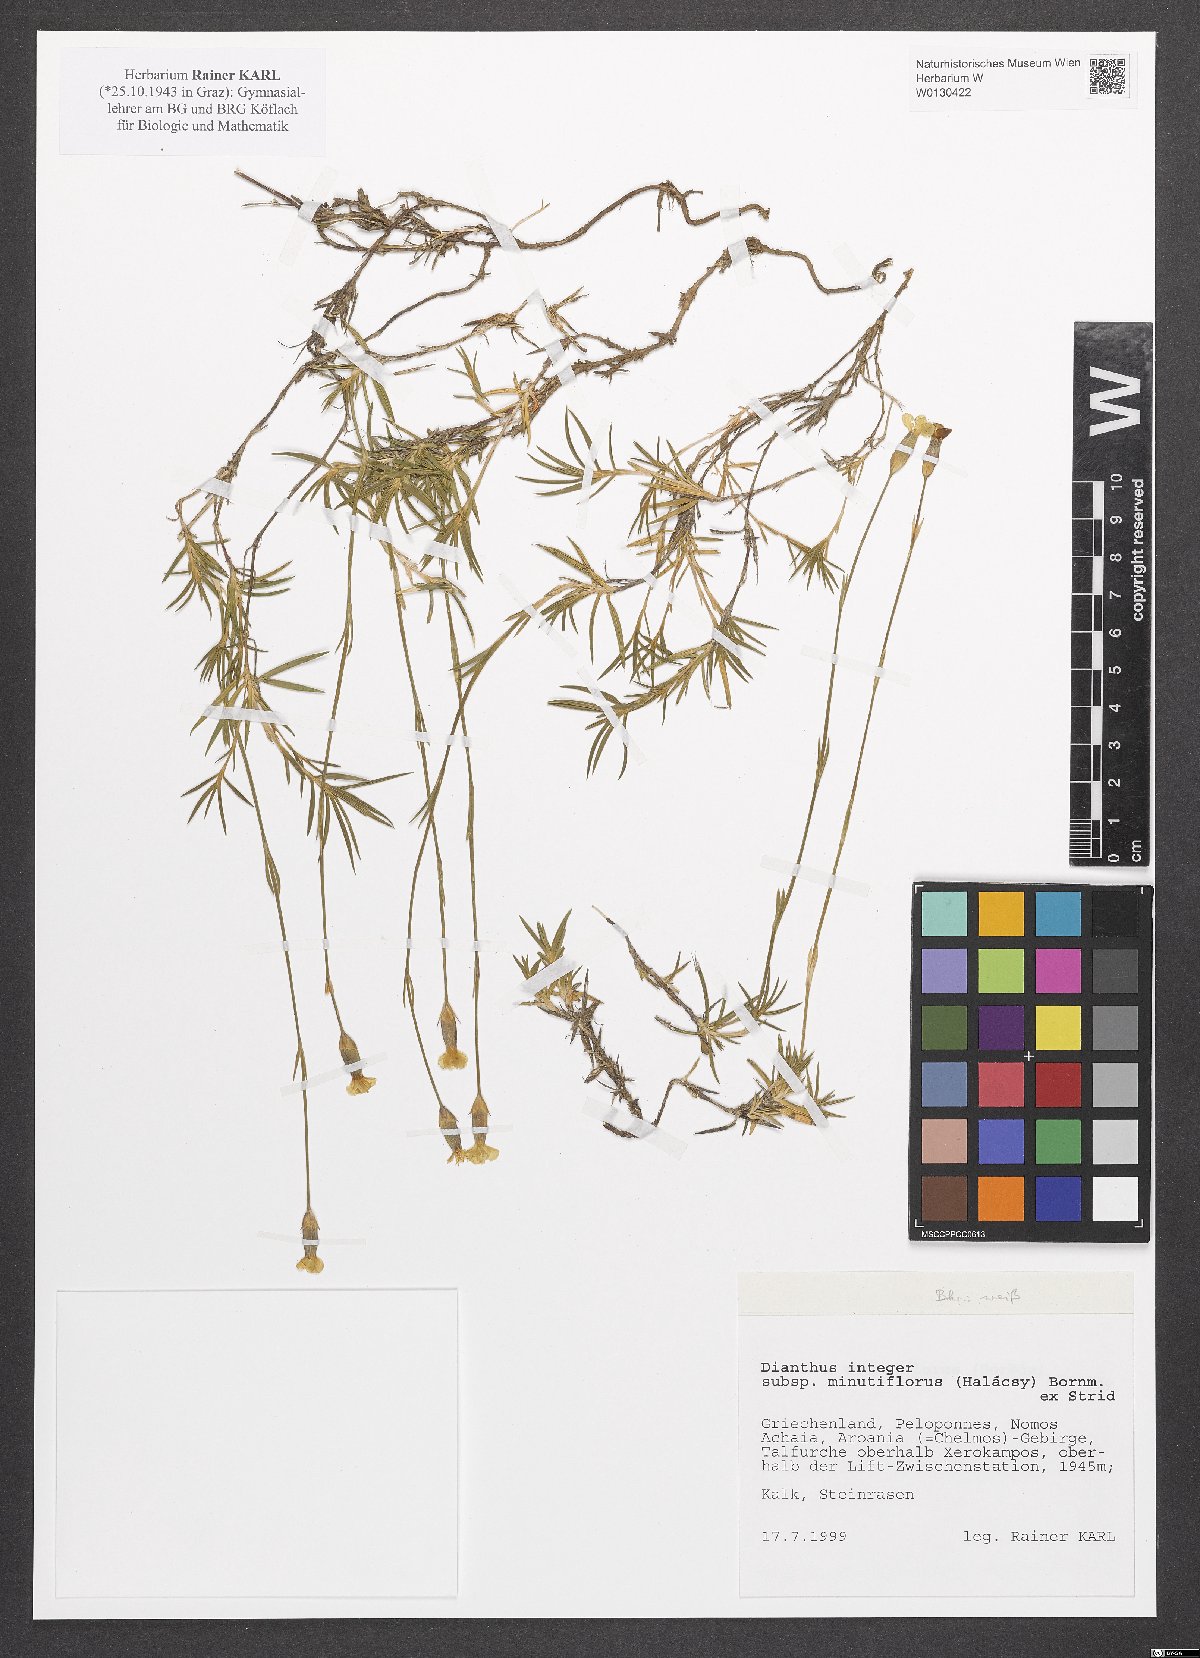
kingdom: Plantae
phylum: Tracheophyta
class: Magnoliopsida
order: Caryophyllales
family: Caryophyllaceae
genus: Dianthus
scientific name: Dianthus integer
